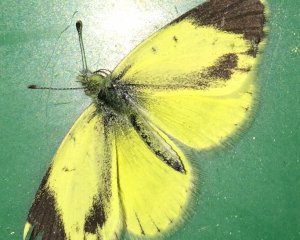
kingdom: Animalia
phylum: Arthropoda
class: Insecta
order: Lepidoptera
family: Pieridae
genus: Nathalis
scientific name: Nathalis iole
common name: Dainty Sulphur
